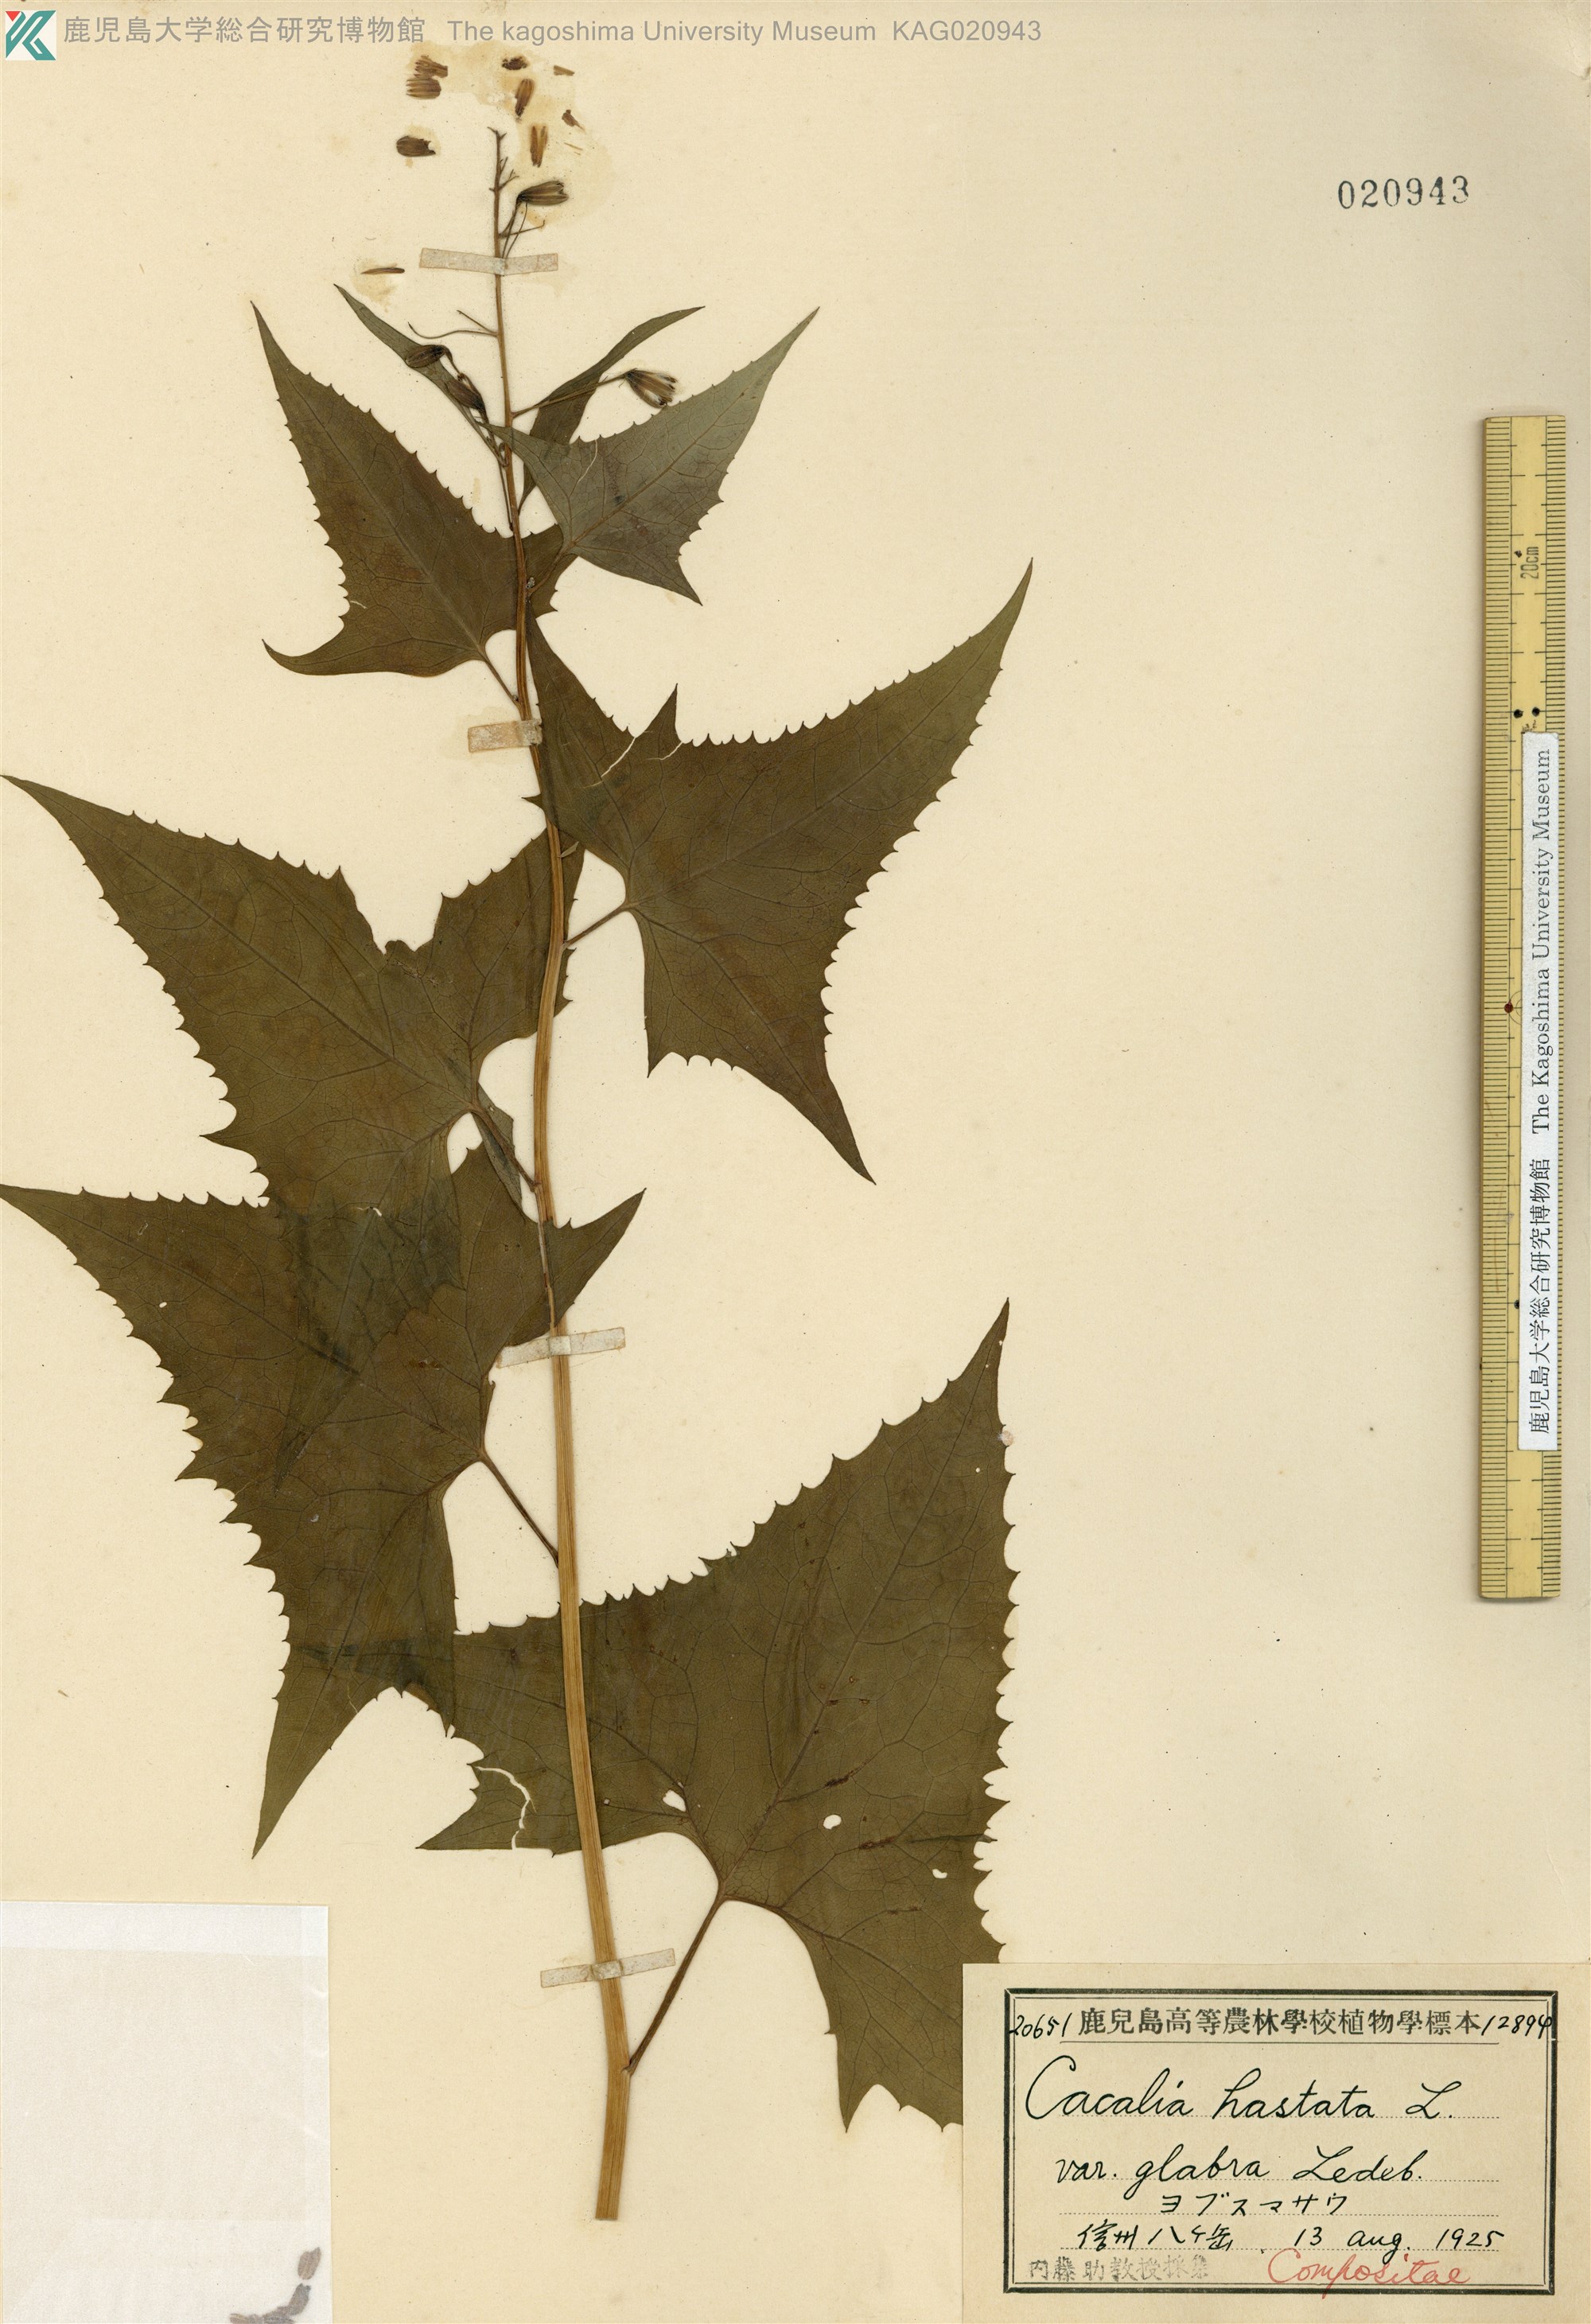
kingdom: Plantae
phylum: Tracheophyta
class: Magnoliopsida
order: Asterales
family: Asteraceae
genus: Parasenecio
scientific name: Parasenecio
